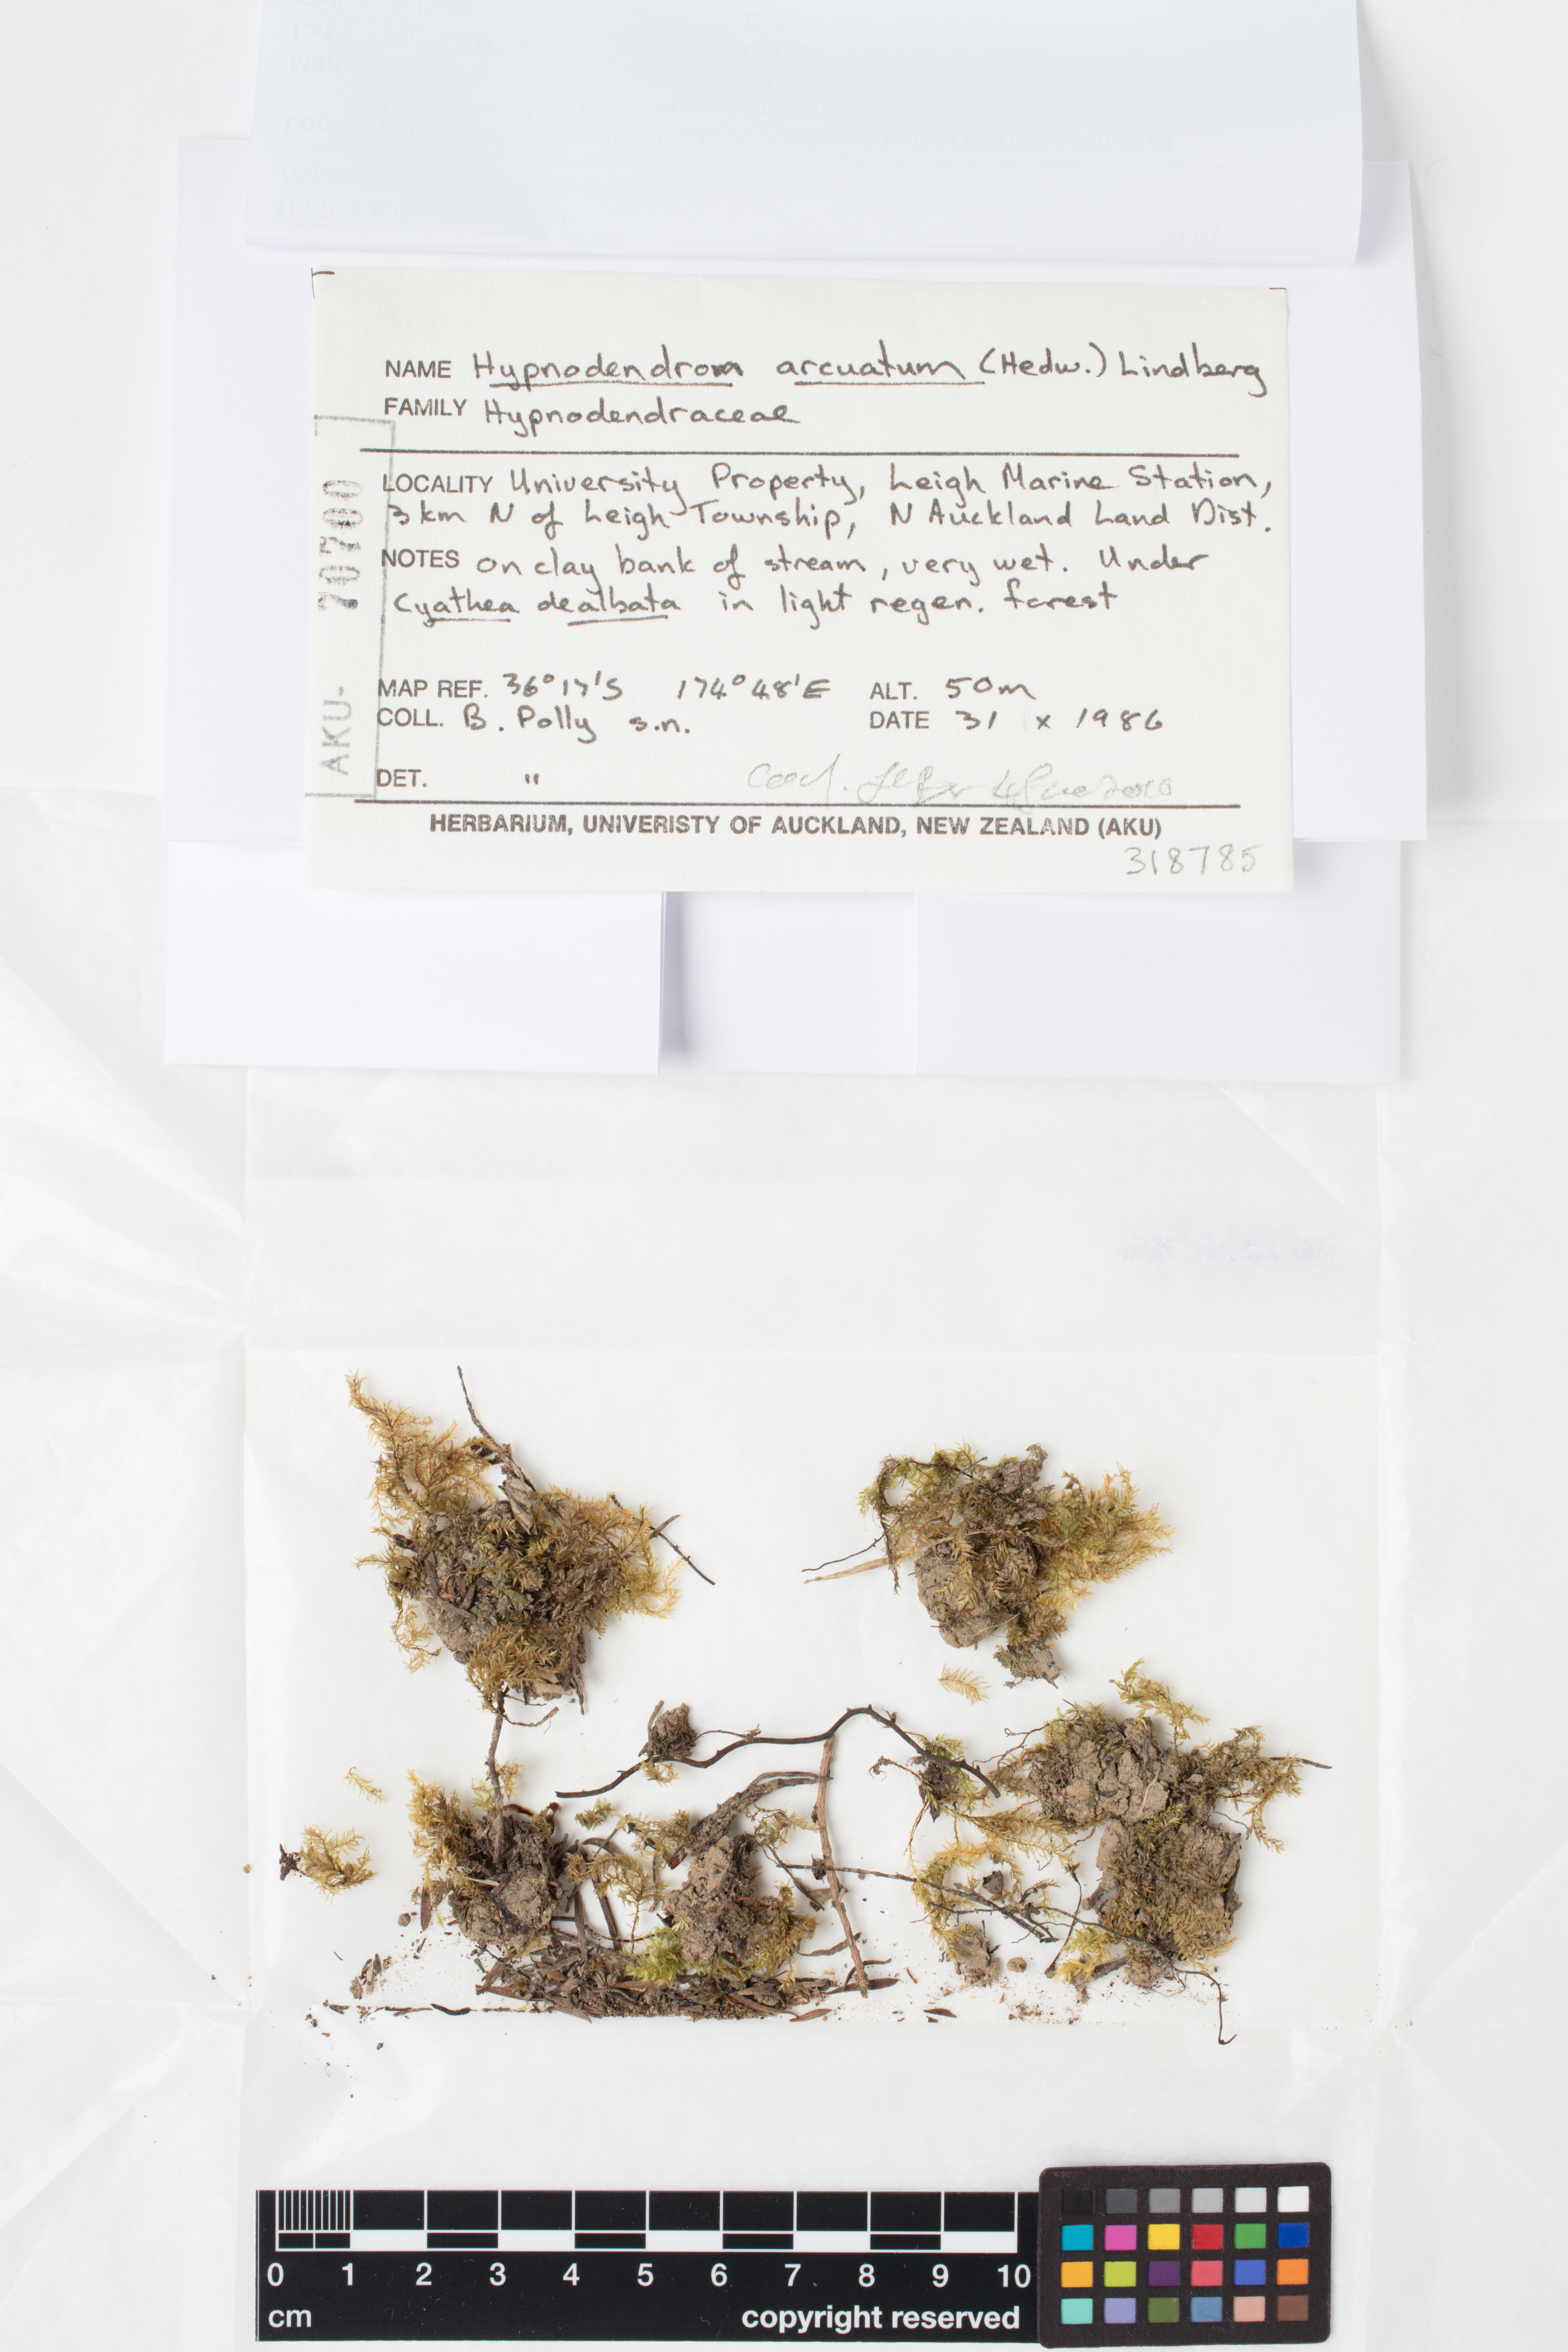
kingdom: Plantae
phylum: Bryophyta
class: Bryopsida
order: Hypnodendrales
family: Spiridentaceae
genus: Hypnodendron
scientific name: Hypnodendron arcuatum
